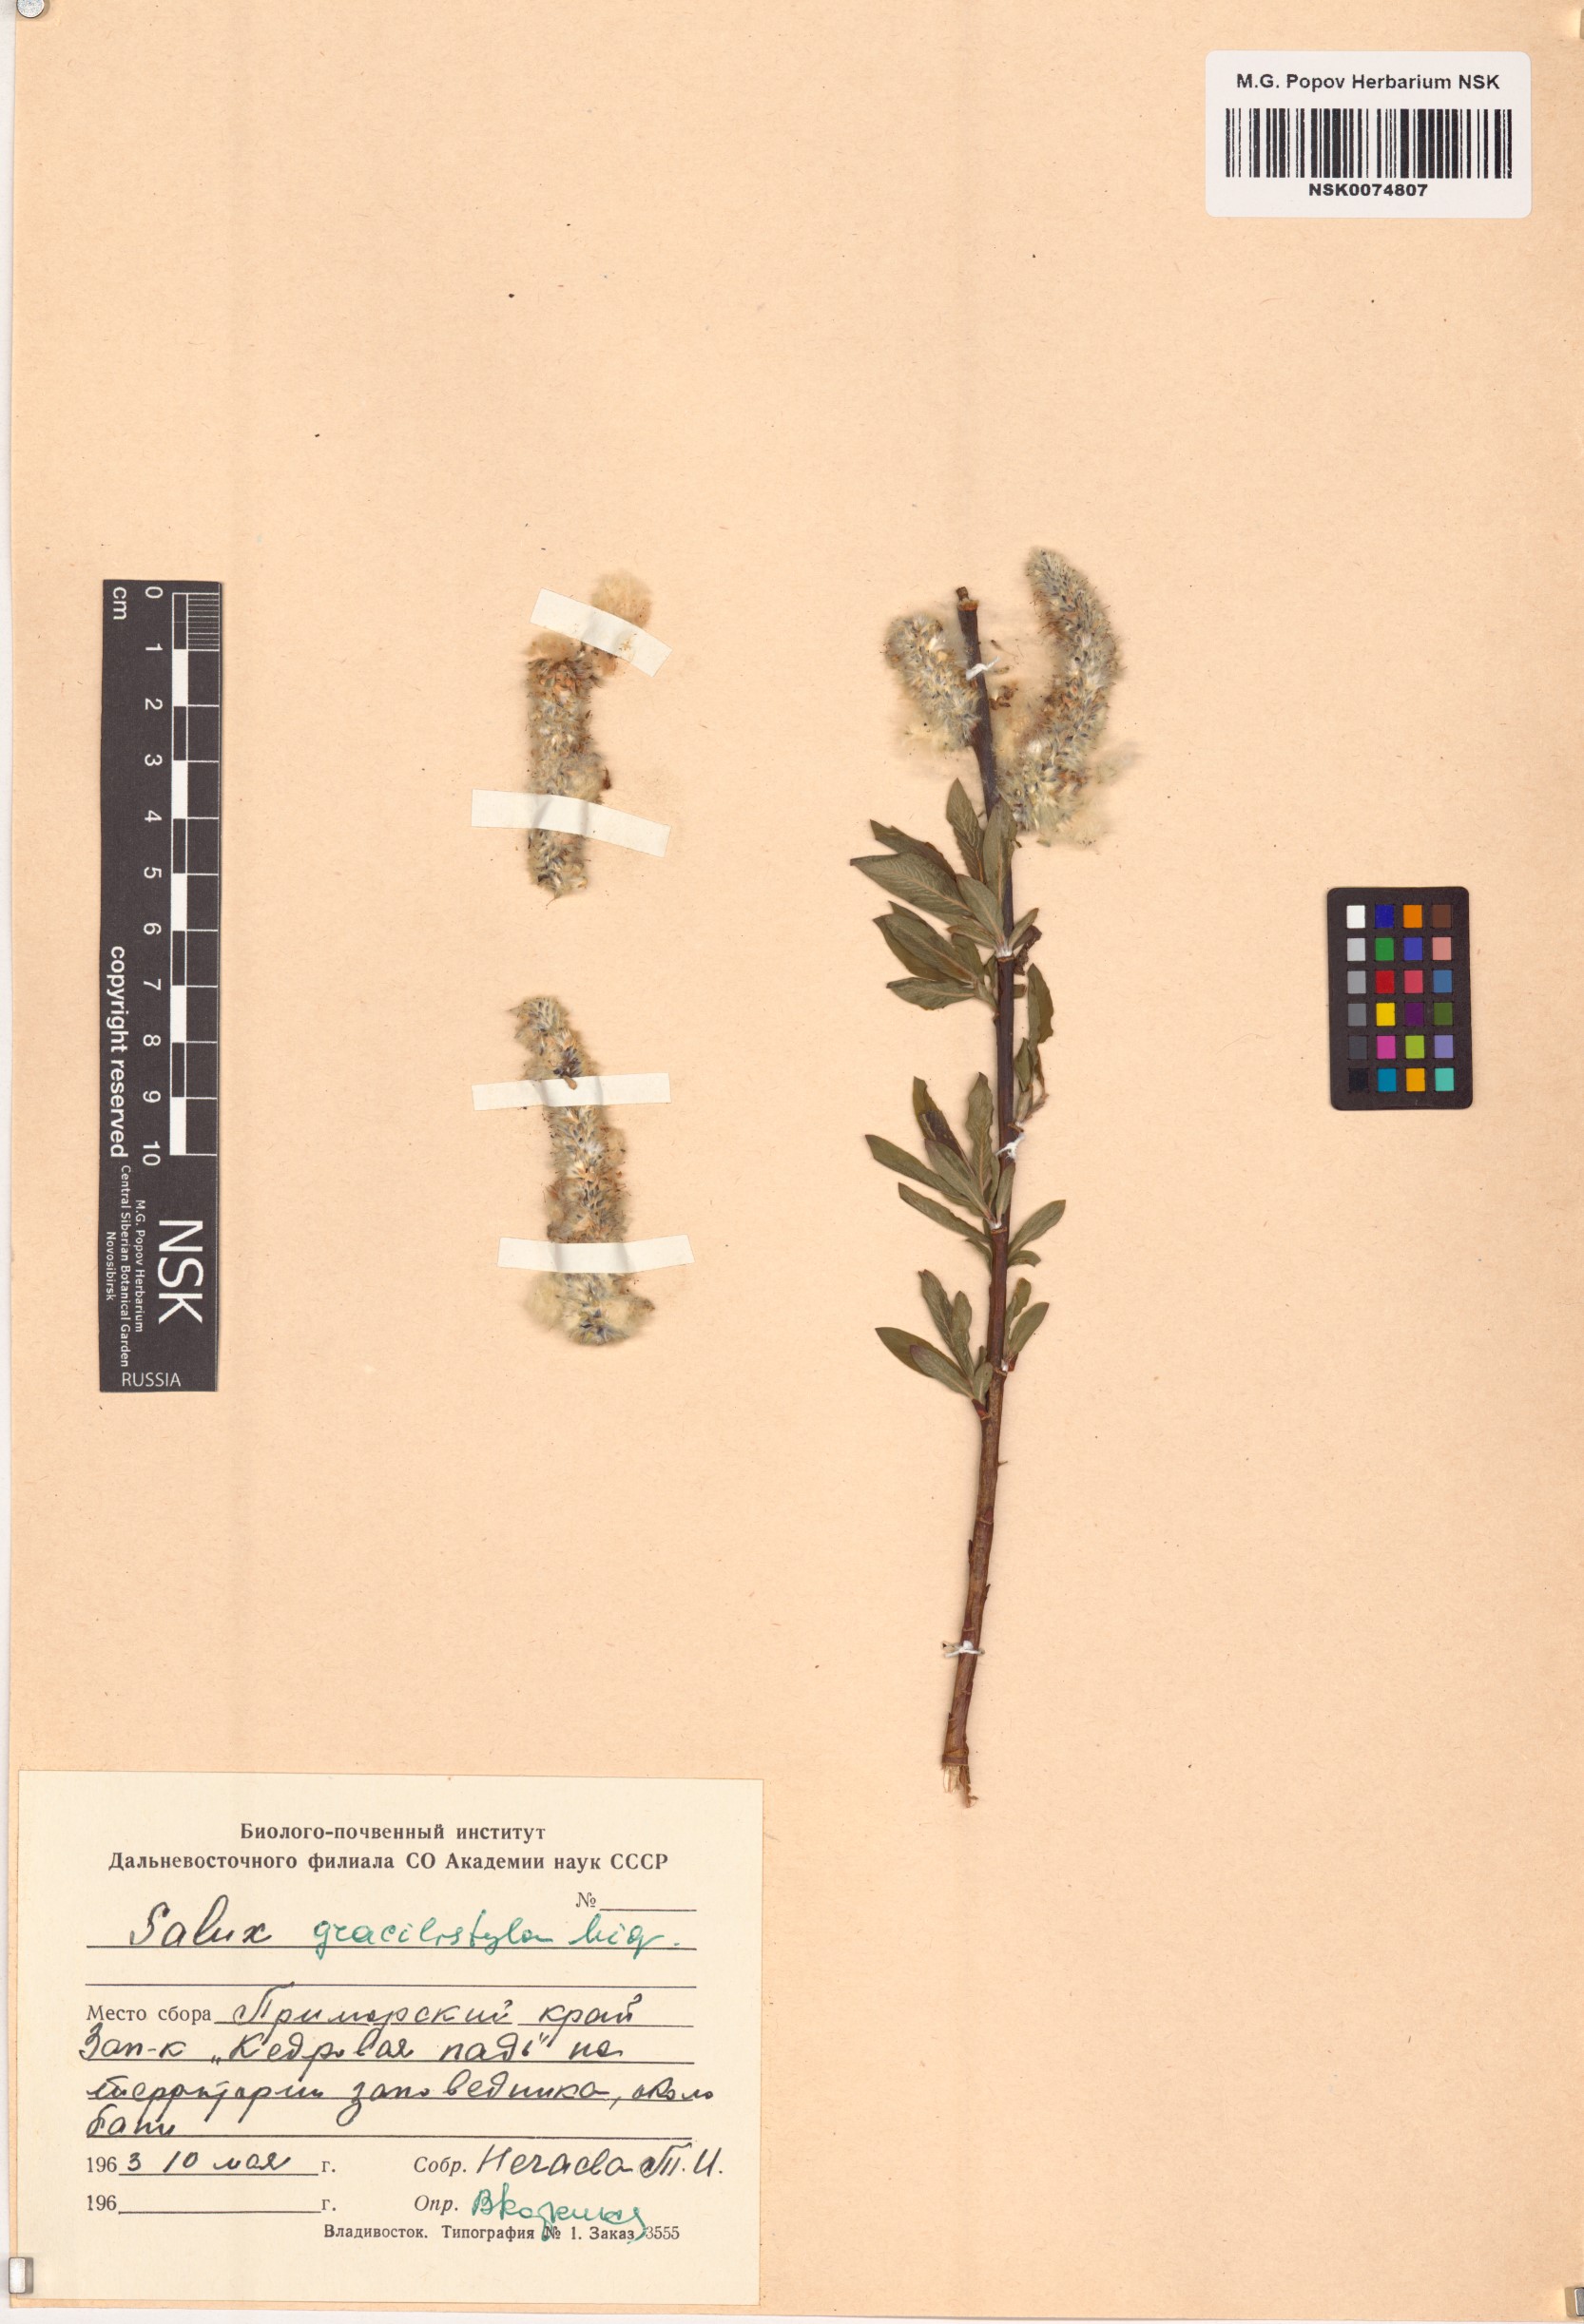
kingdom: Plantae
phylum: Tracheophyta
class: Magnoliopsida
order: Malpighiales
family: Salicaceae
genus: Salix
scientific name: Salix gracilistyla
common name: Rose-gold pussy willow
